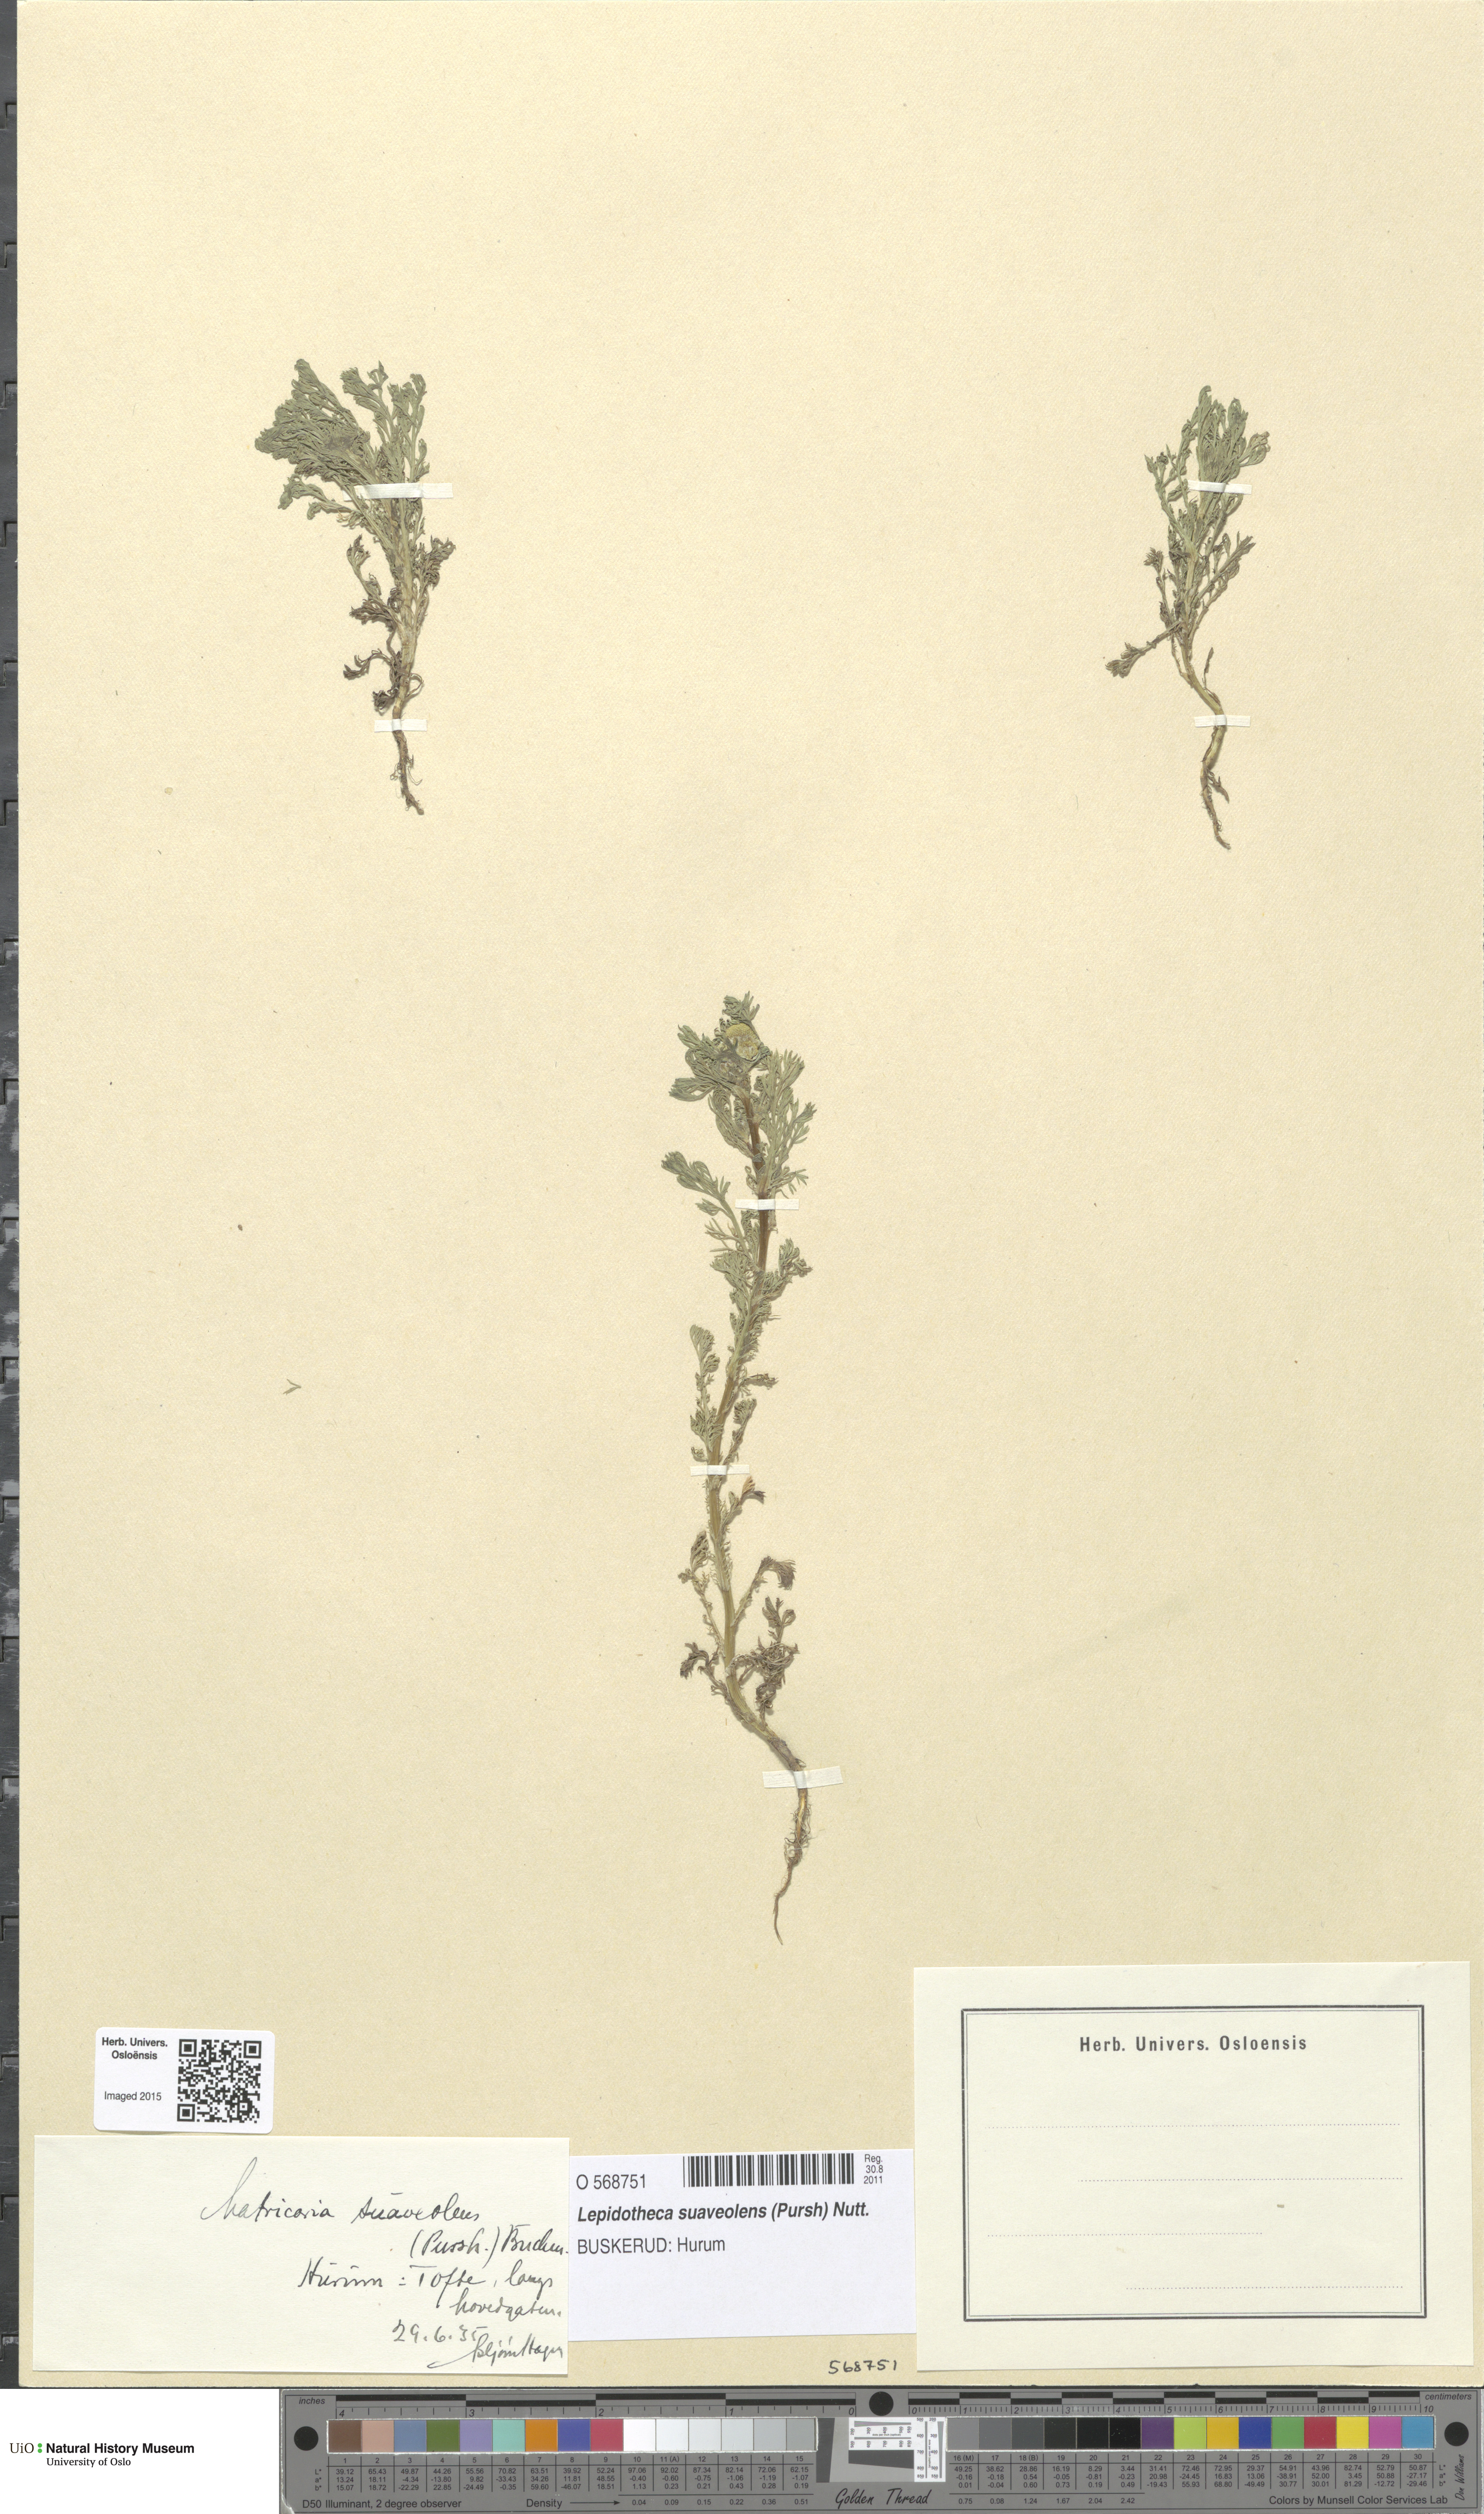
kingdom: Plantae
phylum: Tracheophyta
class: Magnoliopsida
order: Asterales
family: Asteraceae
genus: Matricaria
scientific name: Matricaria discoidea
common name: Disc mayweed
